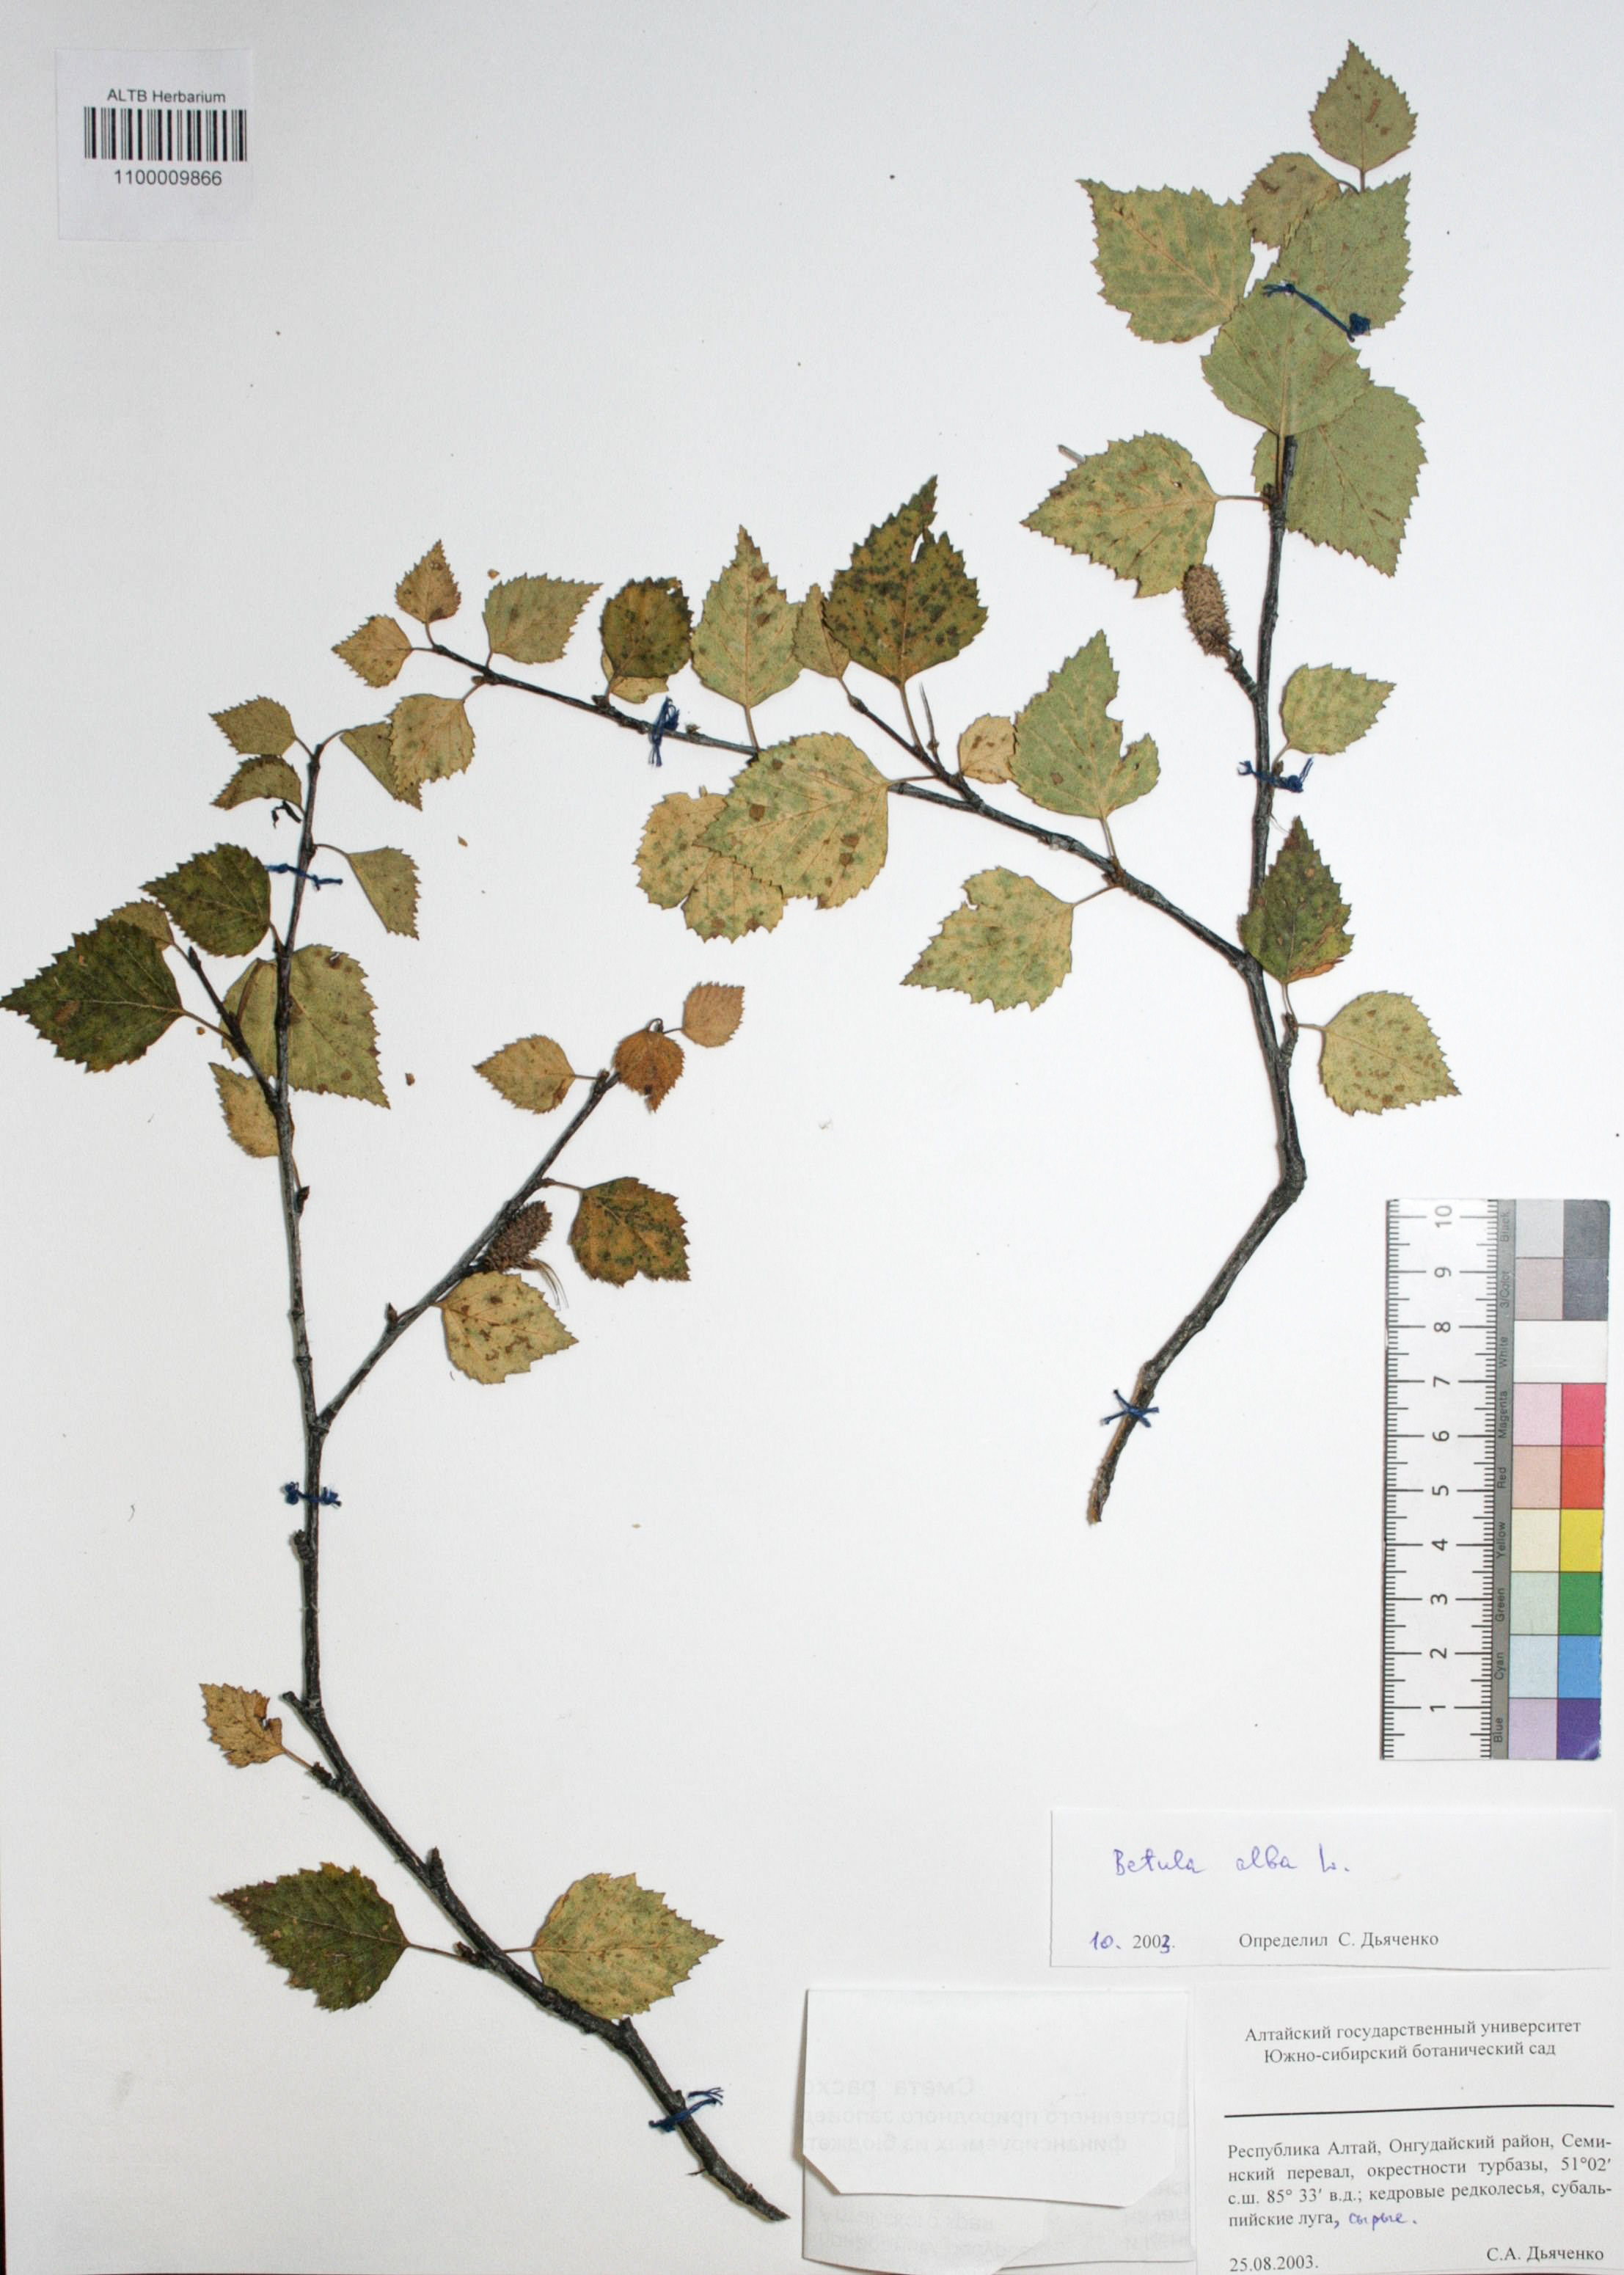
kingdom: Plantae
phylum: Tracheophyta
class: Magnoliopsida
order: Fagales
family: Betulaceae
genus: Betula
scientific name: Betula pubescens
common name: Downy birch
